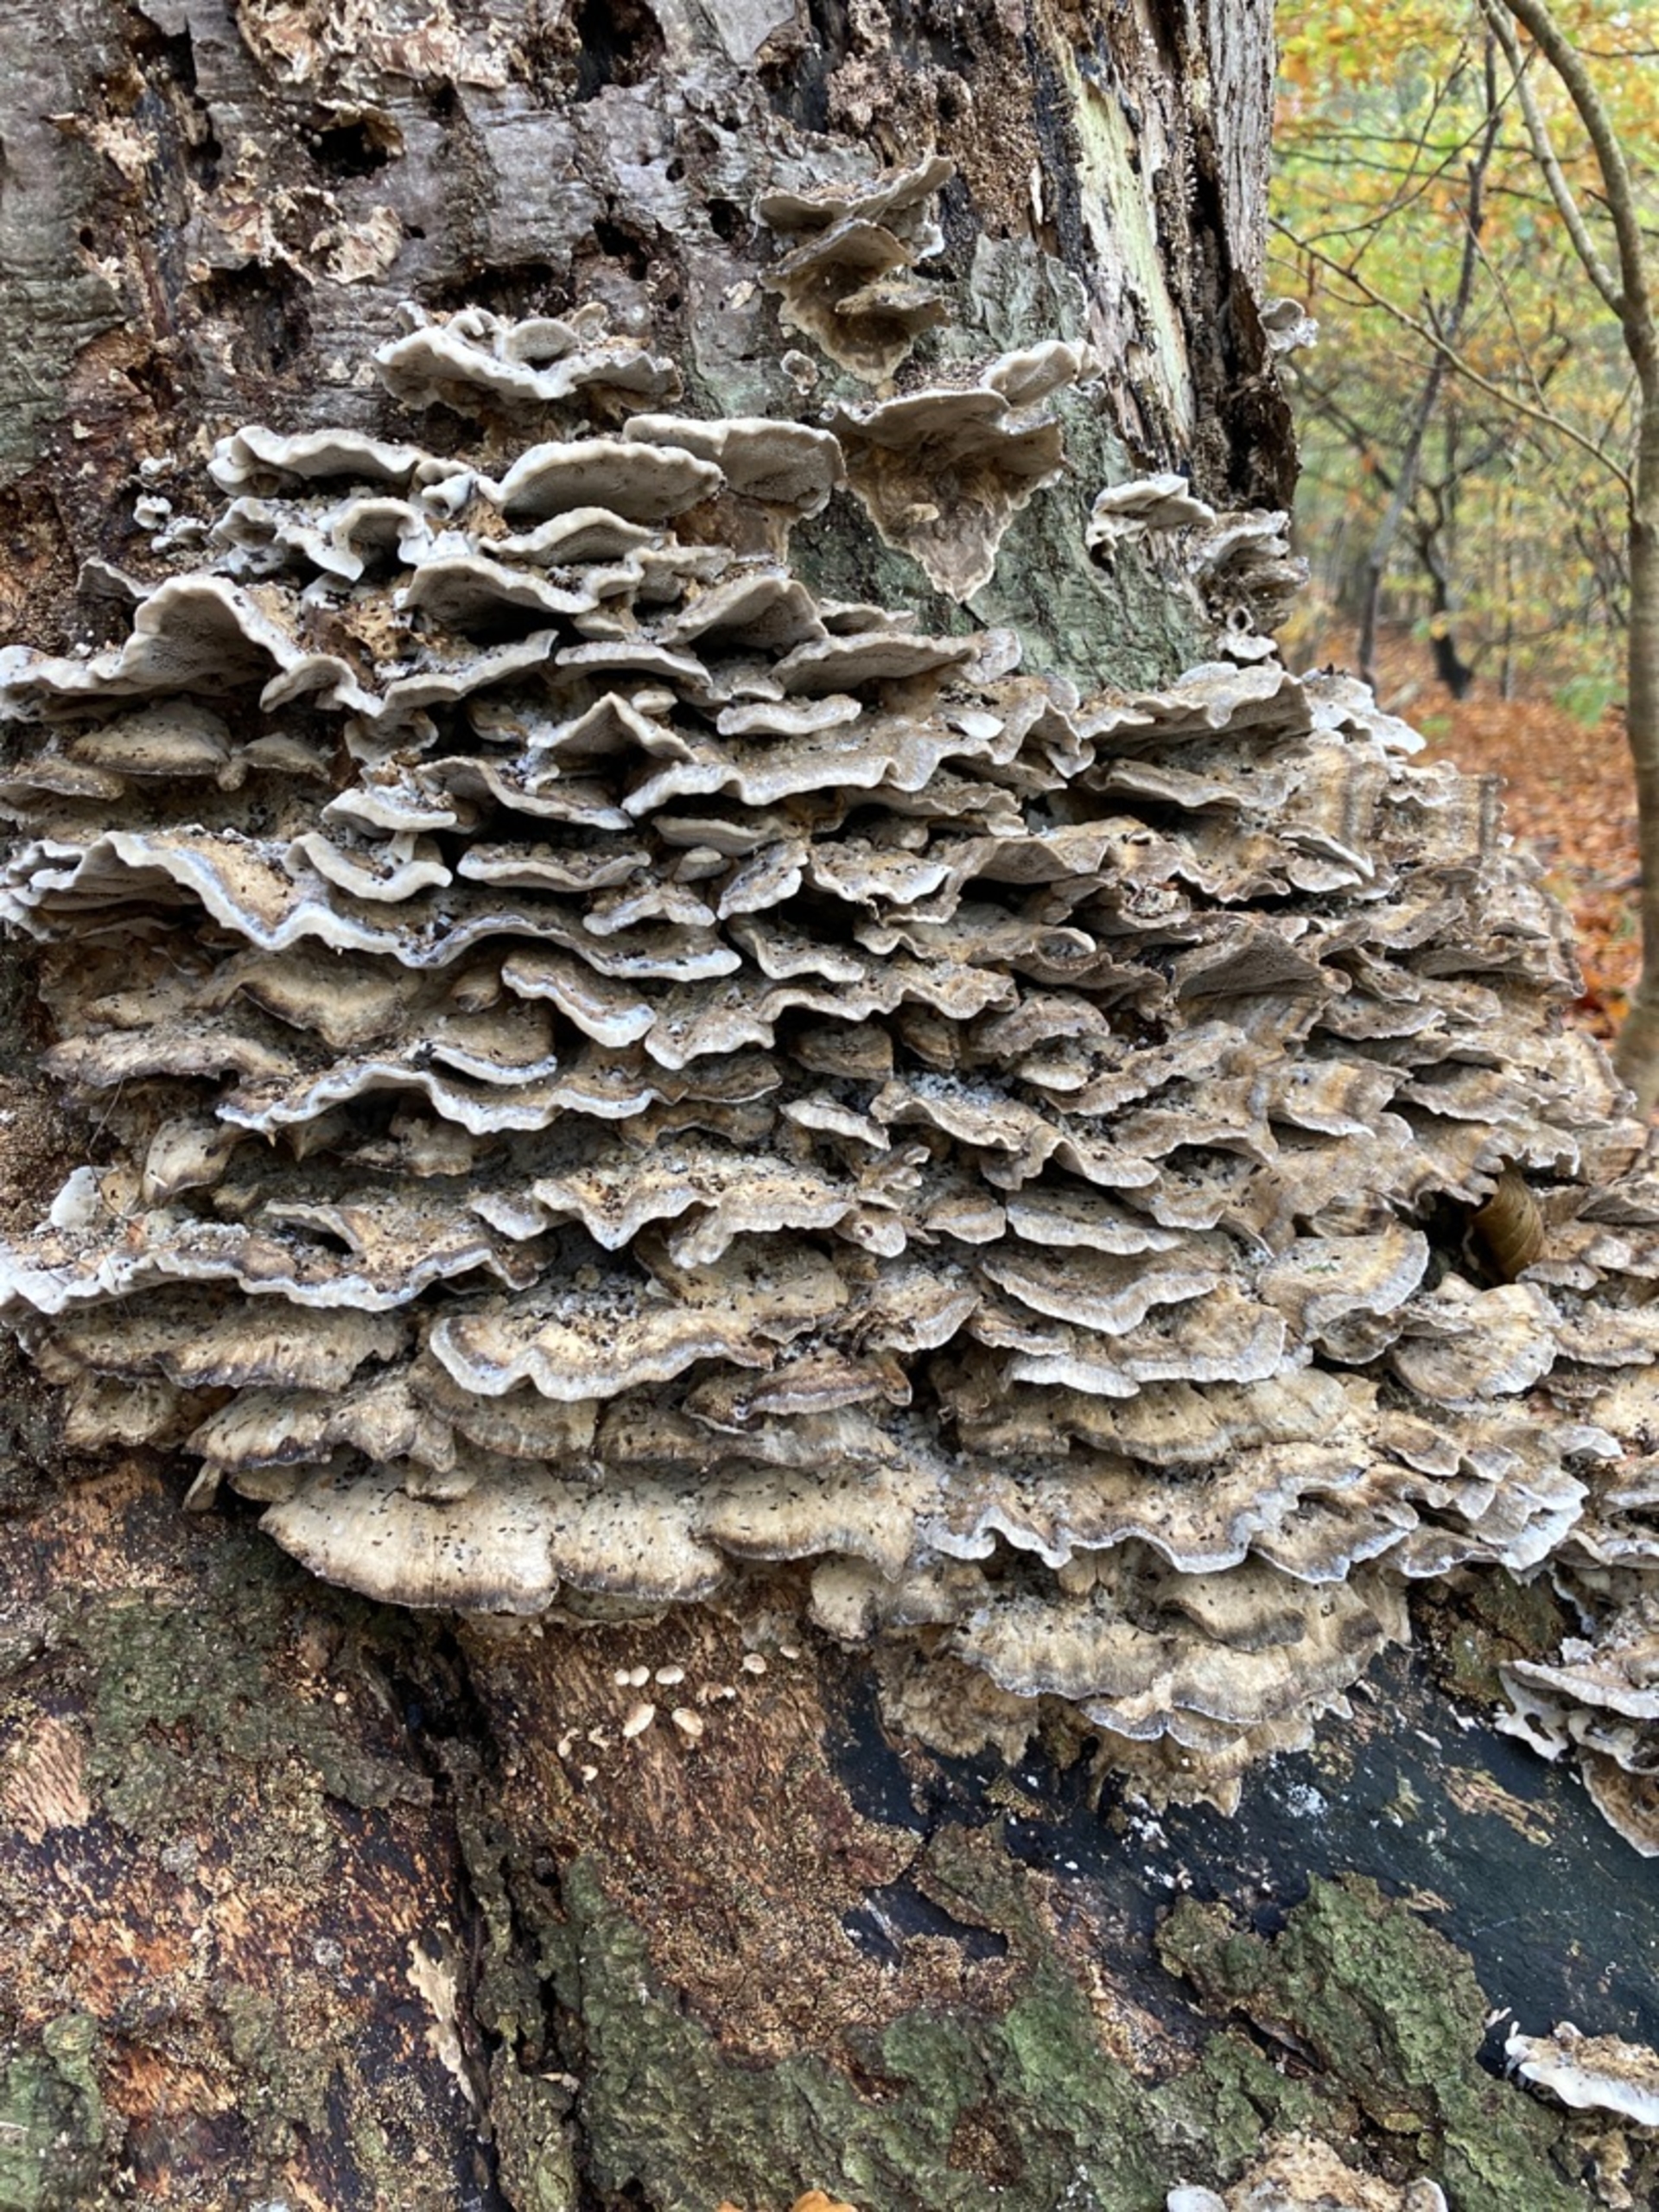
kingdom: Fungi
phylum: Basidiomycota
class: Agaricomycetes
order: Polyporales
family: Phanerochaetaceae
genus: Bjerkandera
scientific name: Bjerkandera adusta
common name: Sveden sodporesvamp
